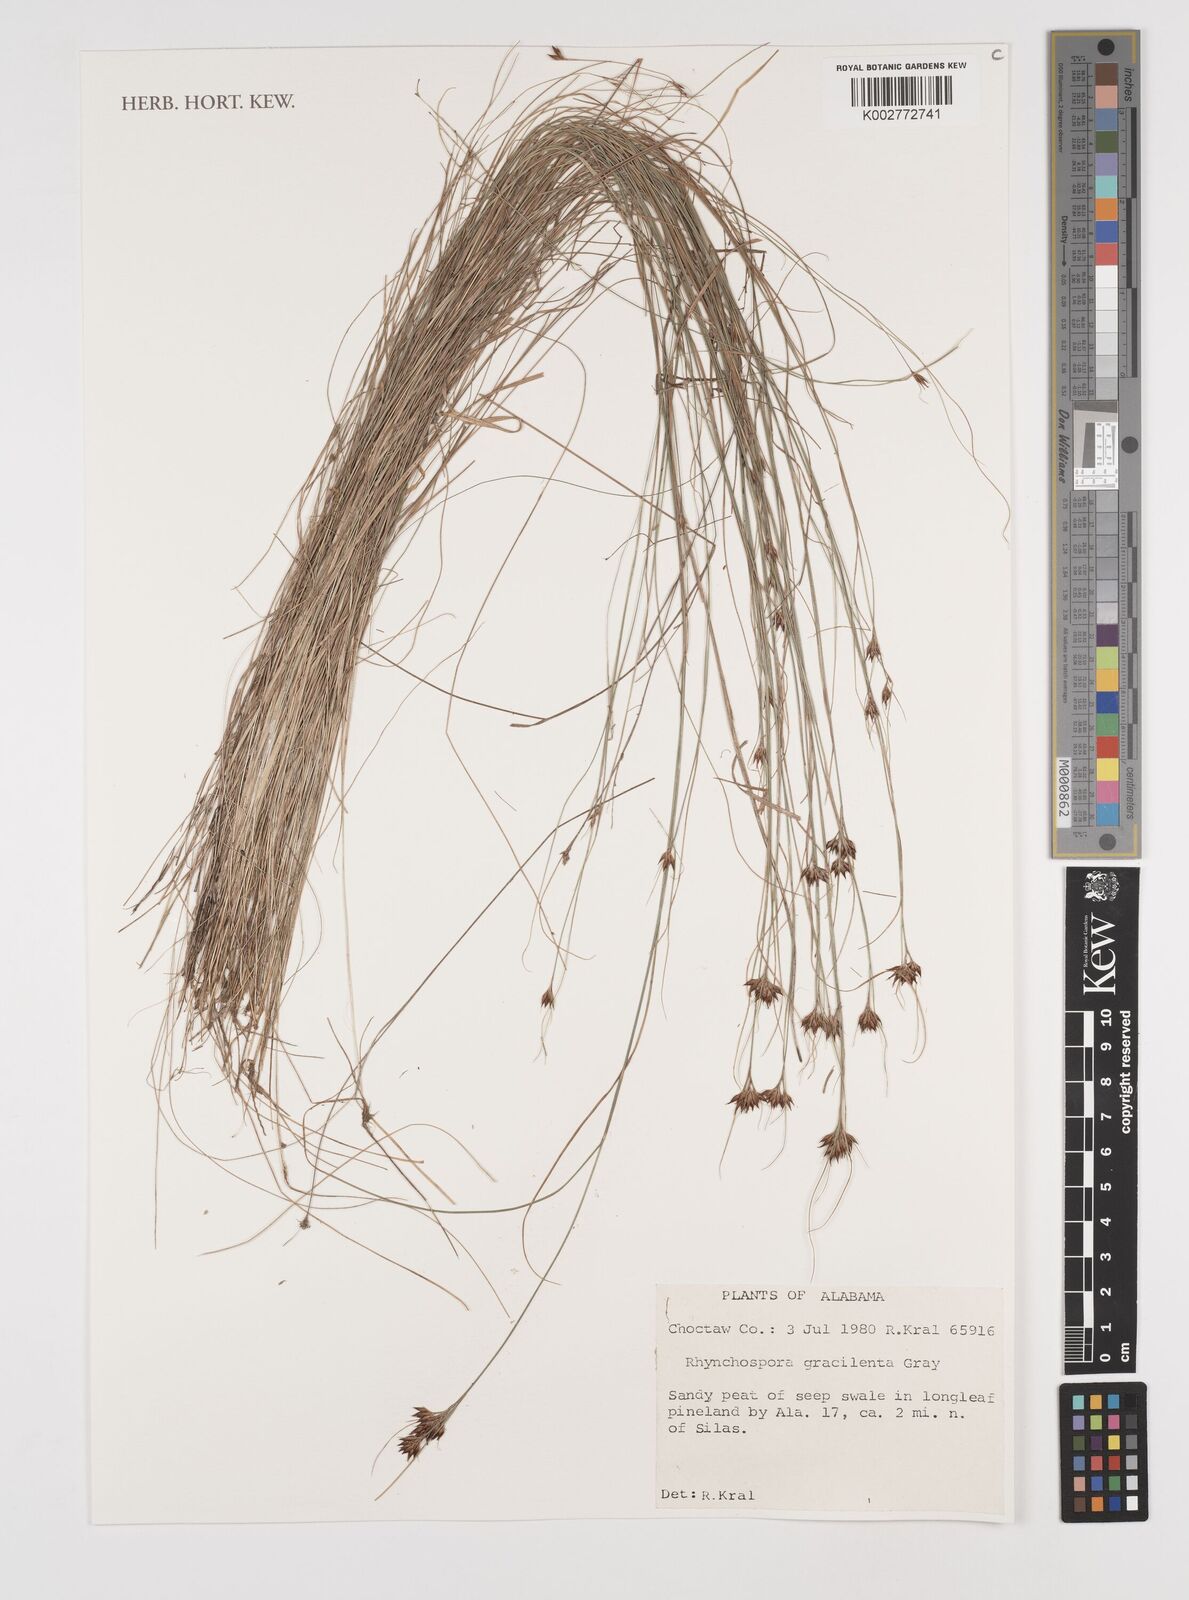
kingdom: Plantae
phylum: Tracheophyta
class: Liliopsida
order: Poales
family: Cyperaceae
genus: Rhynchospora
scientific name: Rhynchospora gracilenta
